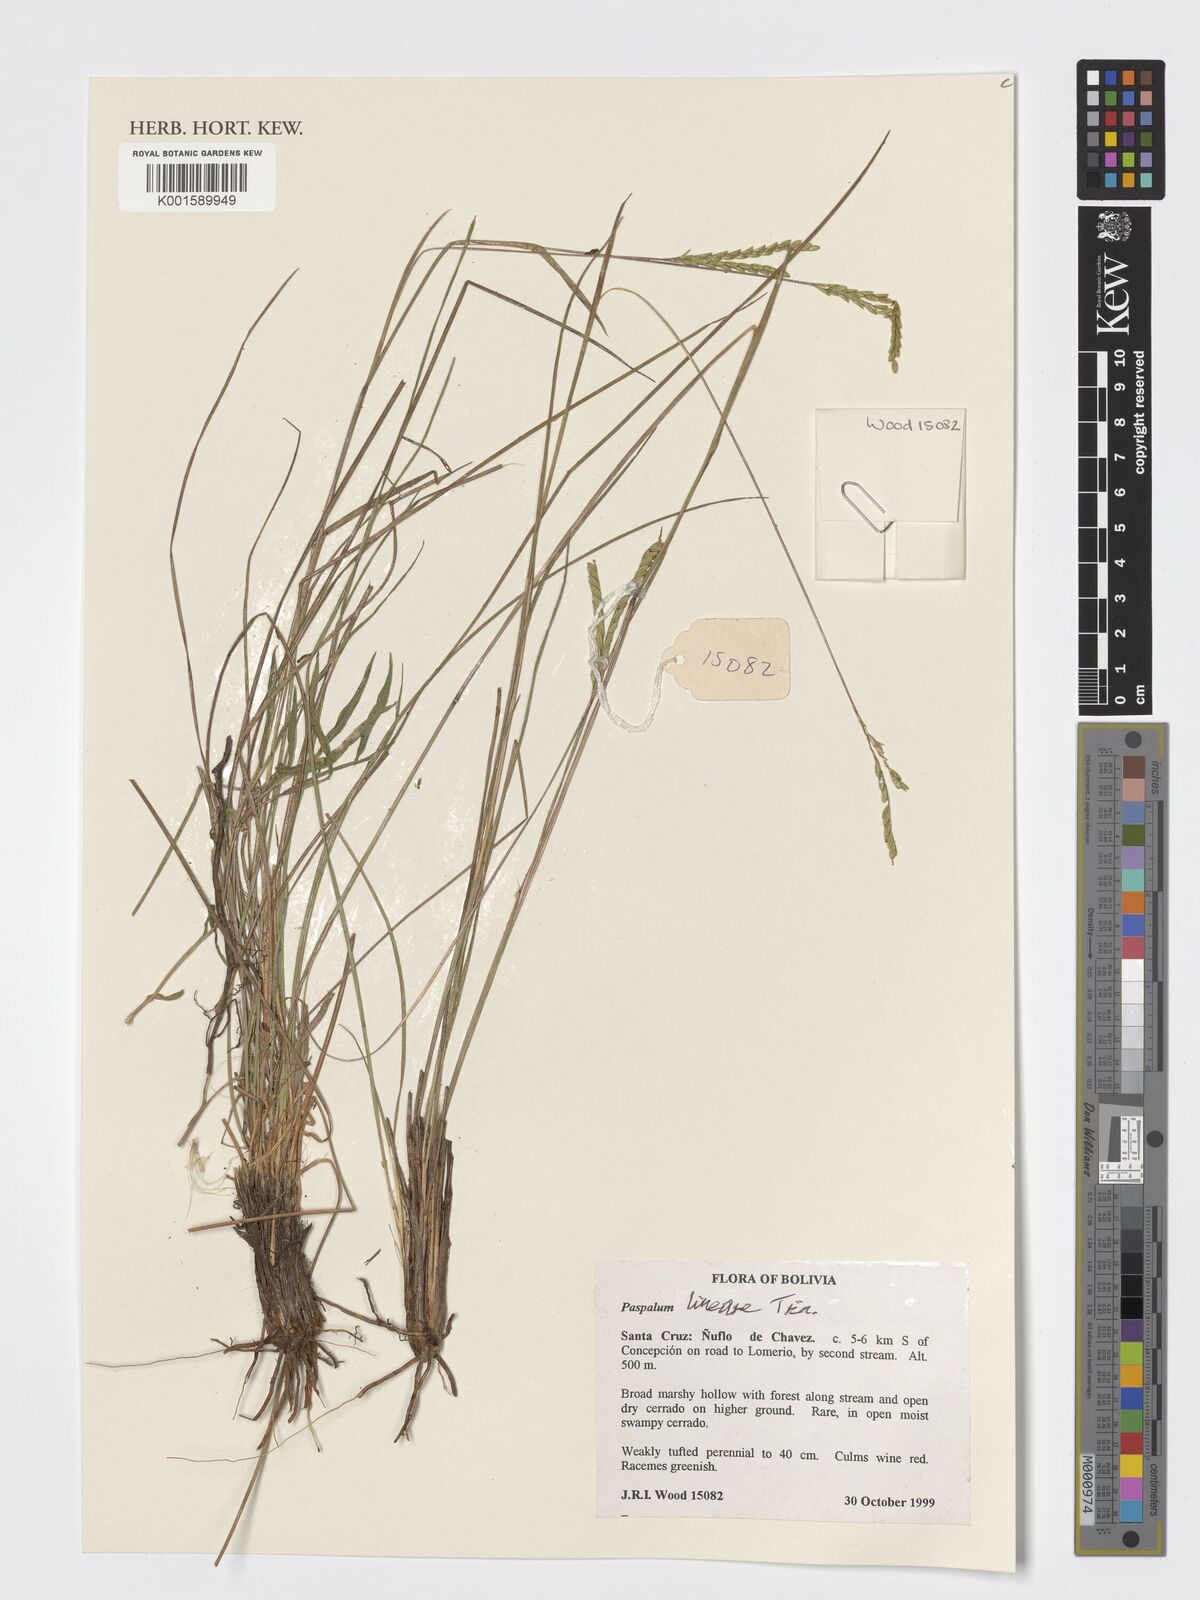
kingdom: Plantae
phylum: Tracheophyta
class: Liliopsida
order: Poales
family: Poaceae
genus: Paspalum
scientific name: Paspalum lineare
